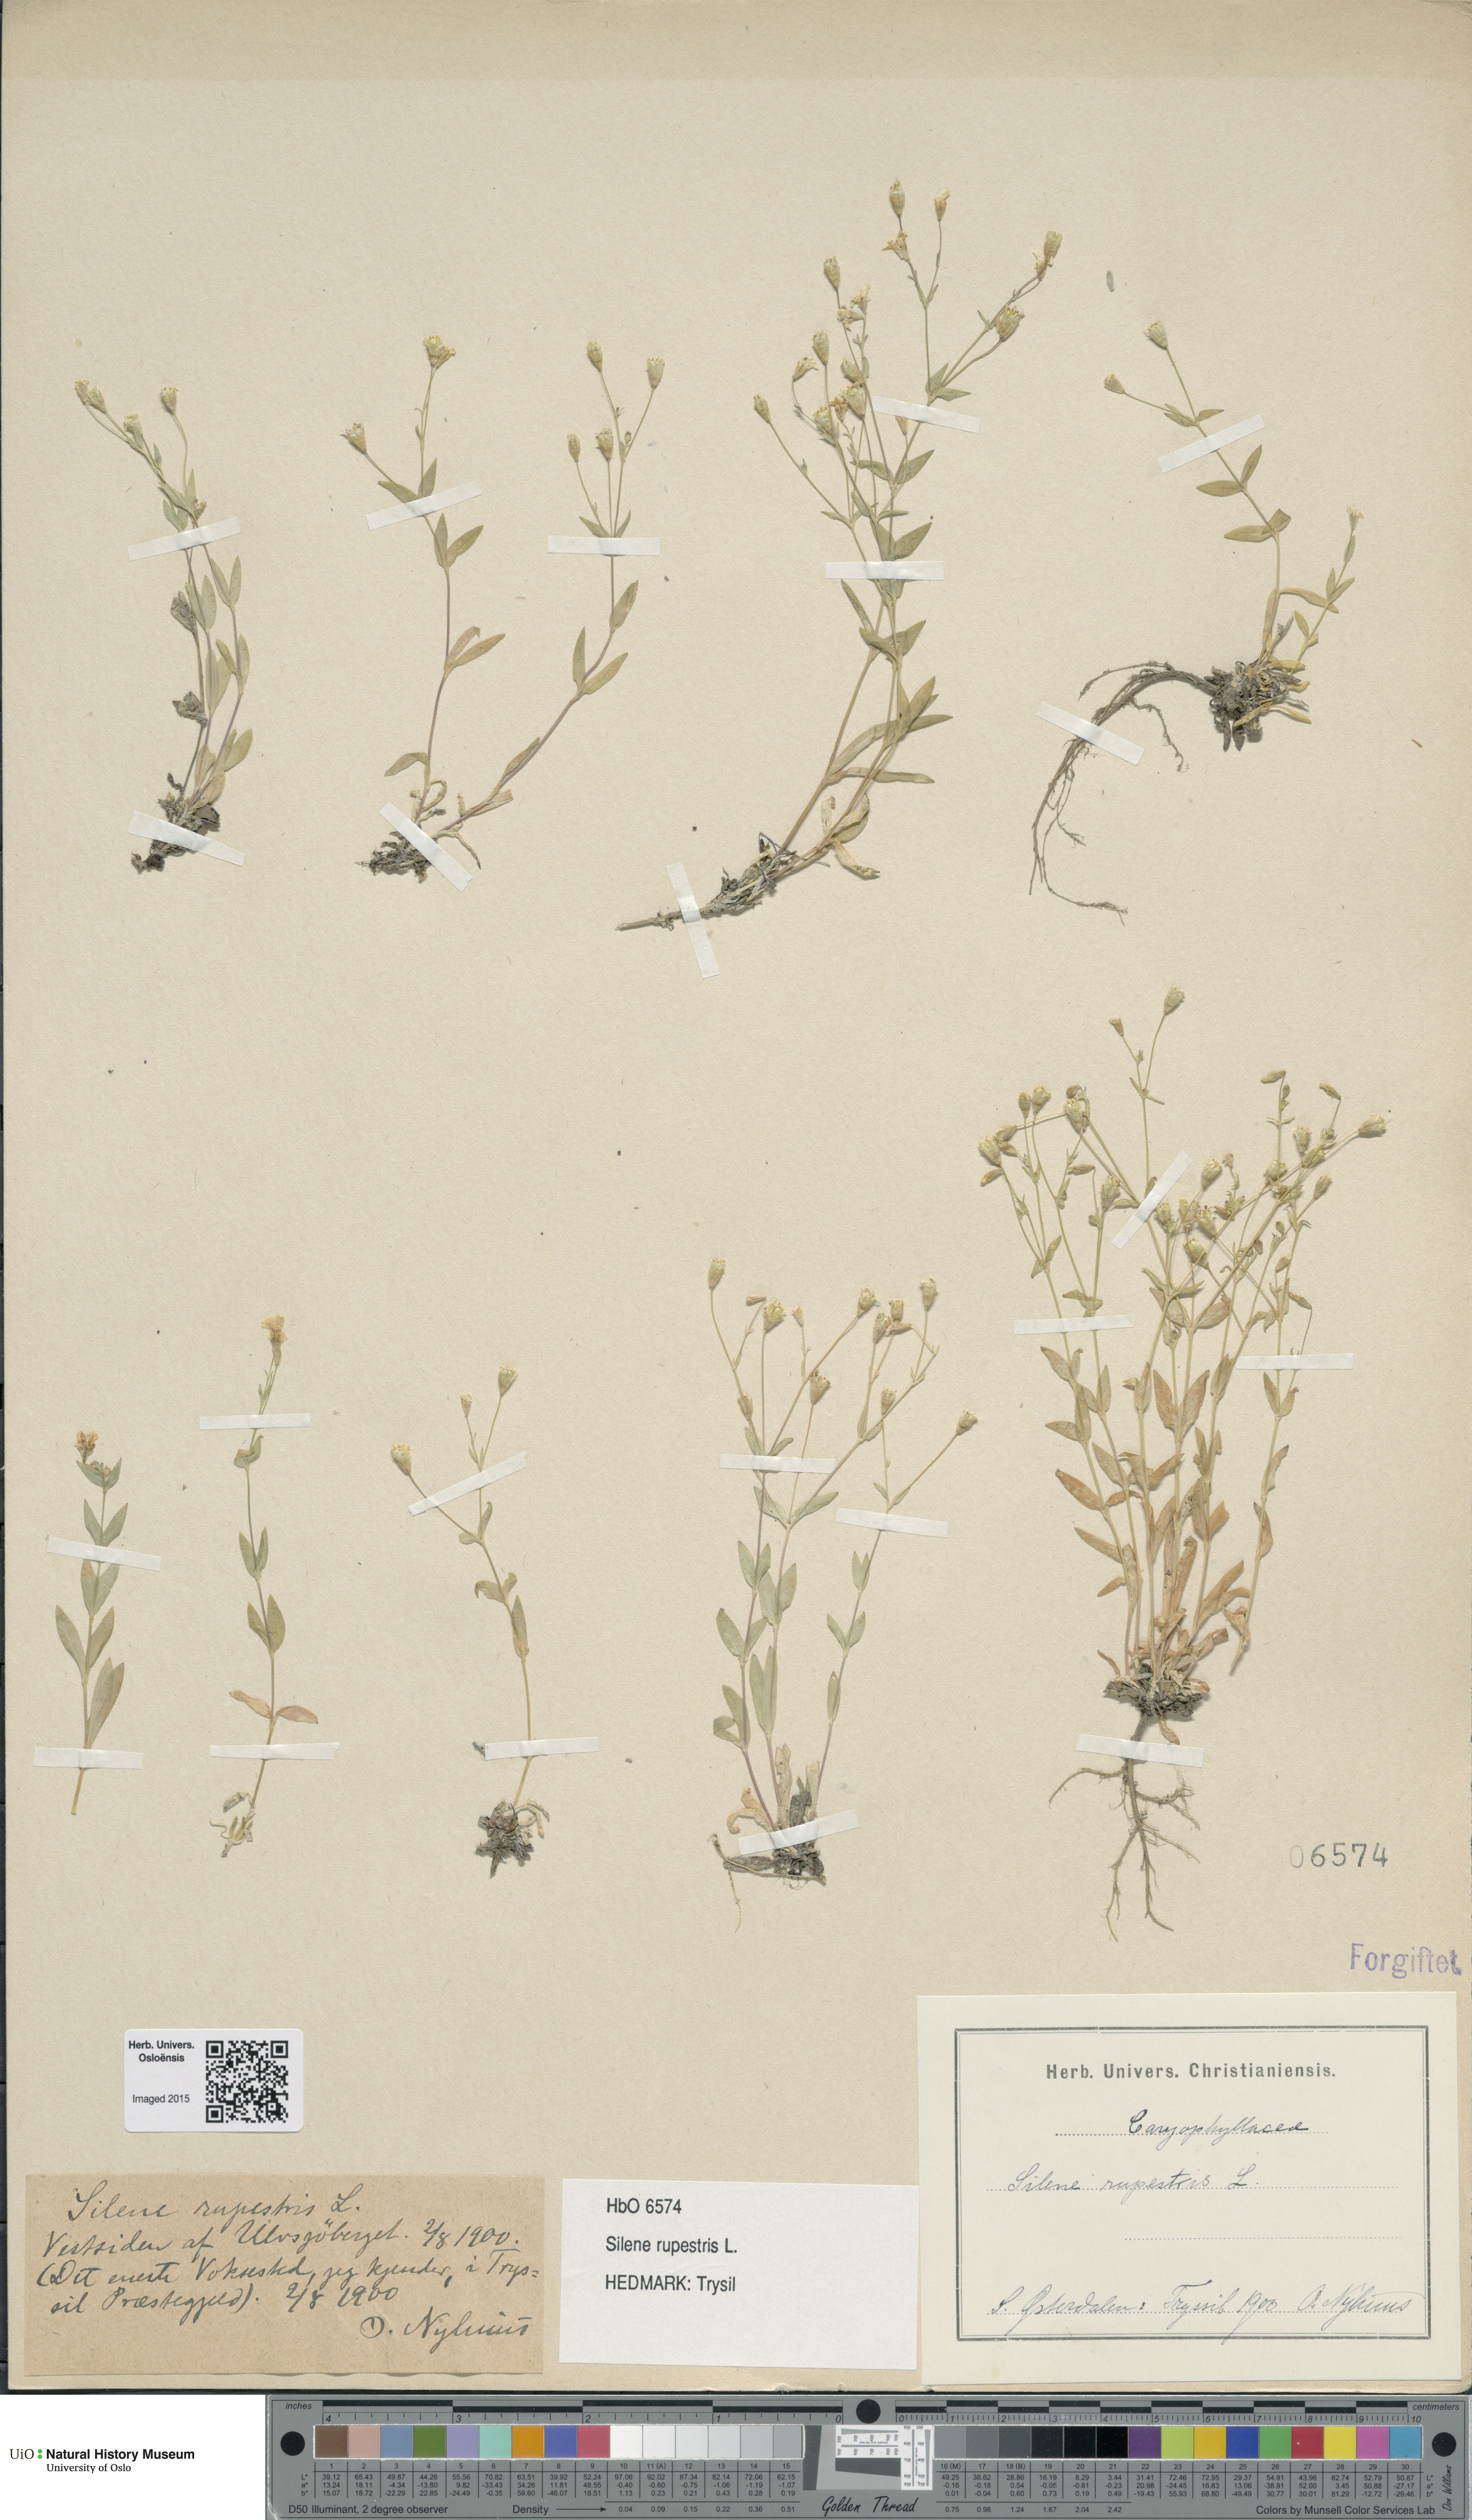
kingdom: Plantae
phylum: Tracheophyta
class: Magnoliopsida
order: Caryophyllales
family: Caryophyllaceae
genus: Atocion
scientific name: Atocion rupestre
